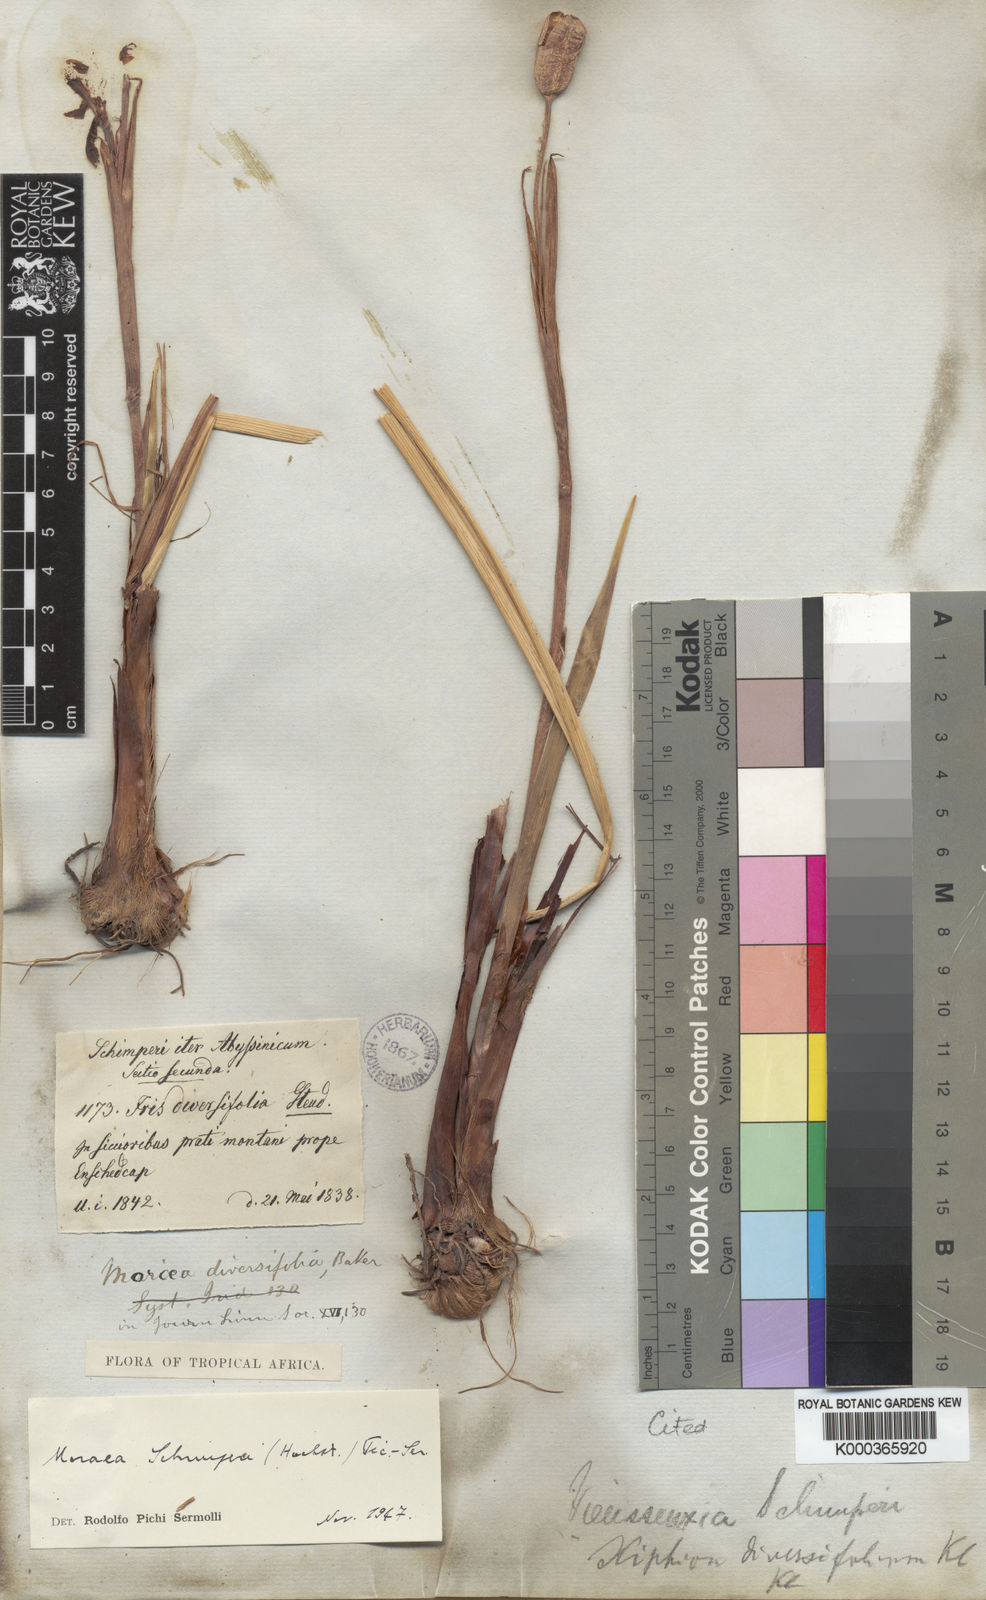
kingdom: Plantae
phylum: Tracheophyta
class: Liliopsida
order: Asparagales
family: Iridaceae
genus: Moraea
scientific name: Moraea schimperi
